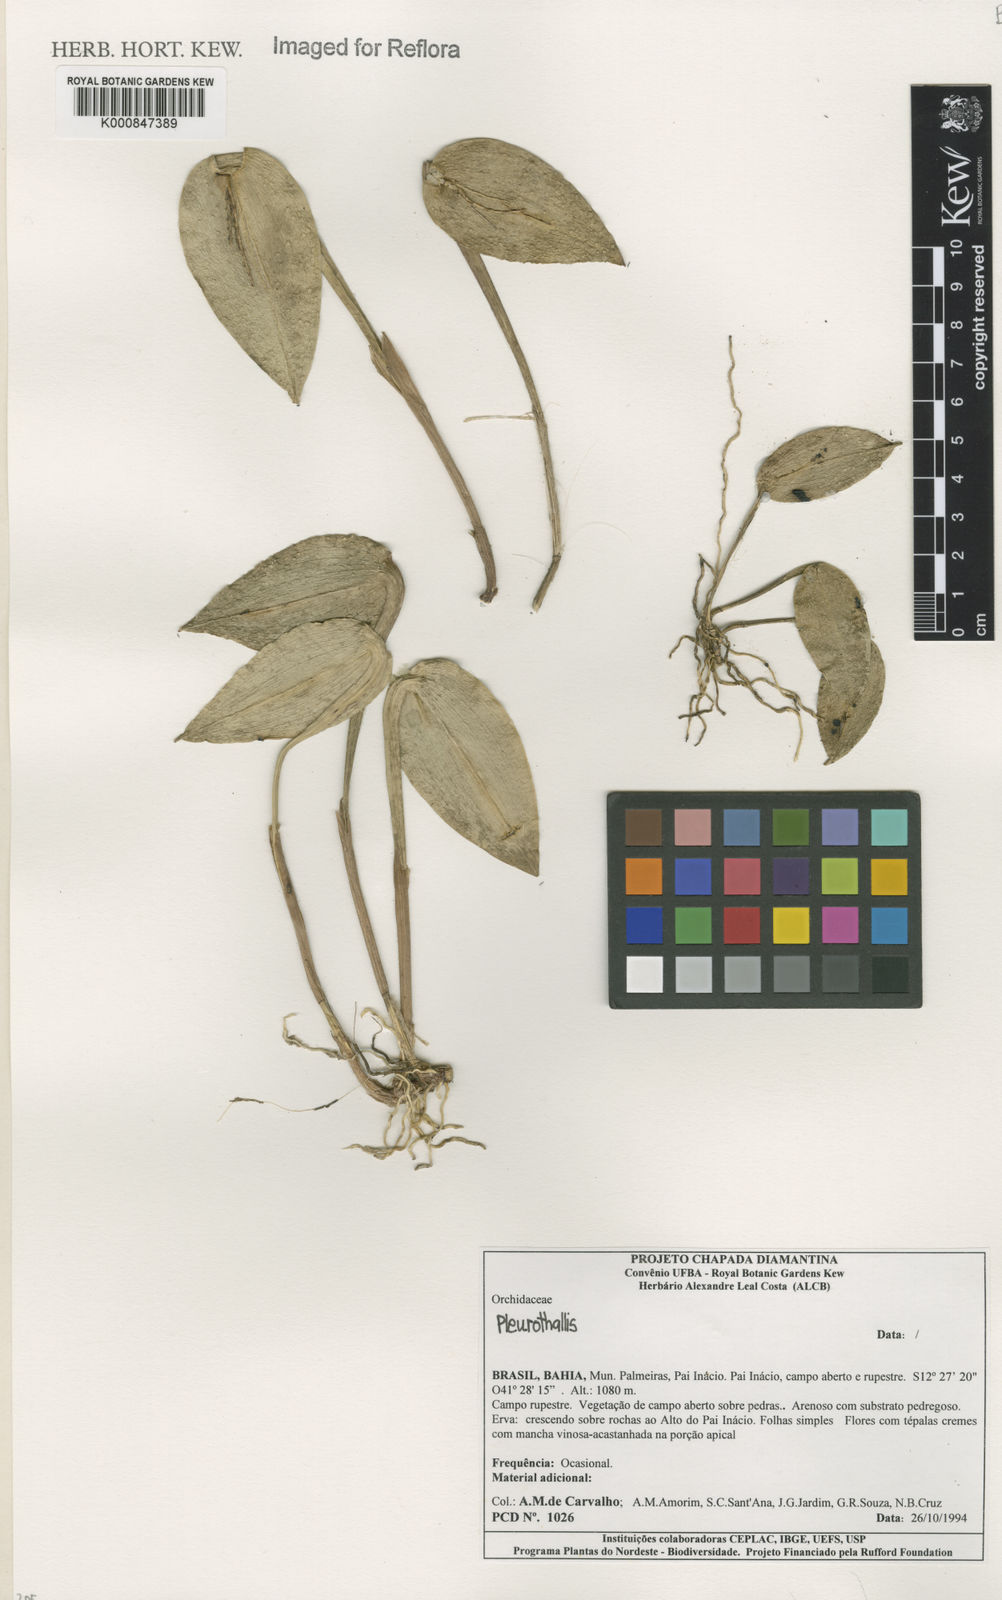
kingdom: Plantae
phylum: Tracheophyta
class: Liliopsida
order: Asparagales
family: Orchidaceae
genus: Acianthera
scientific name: Acianthera
